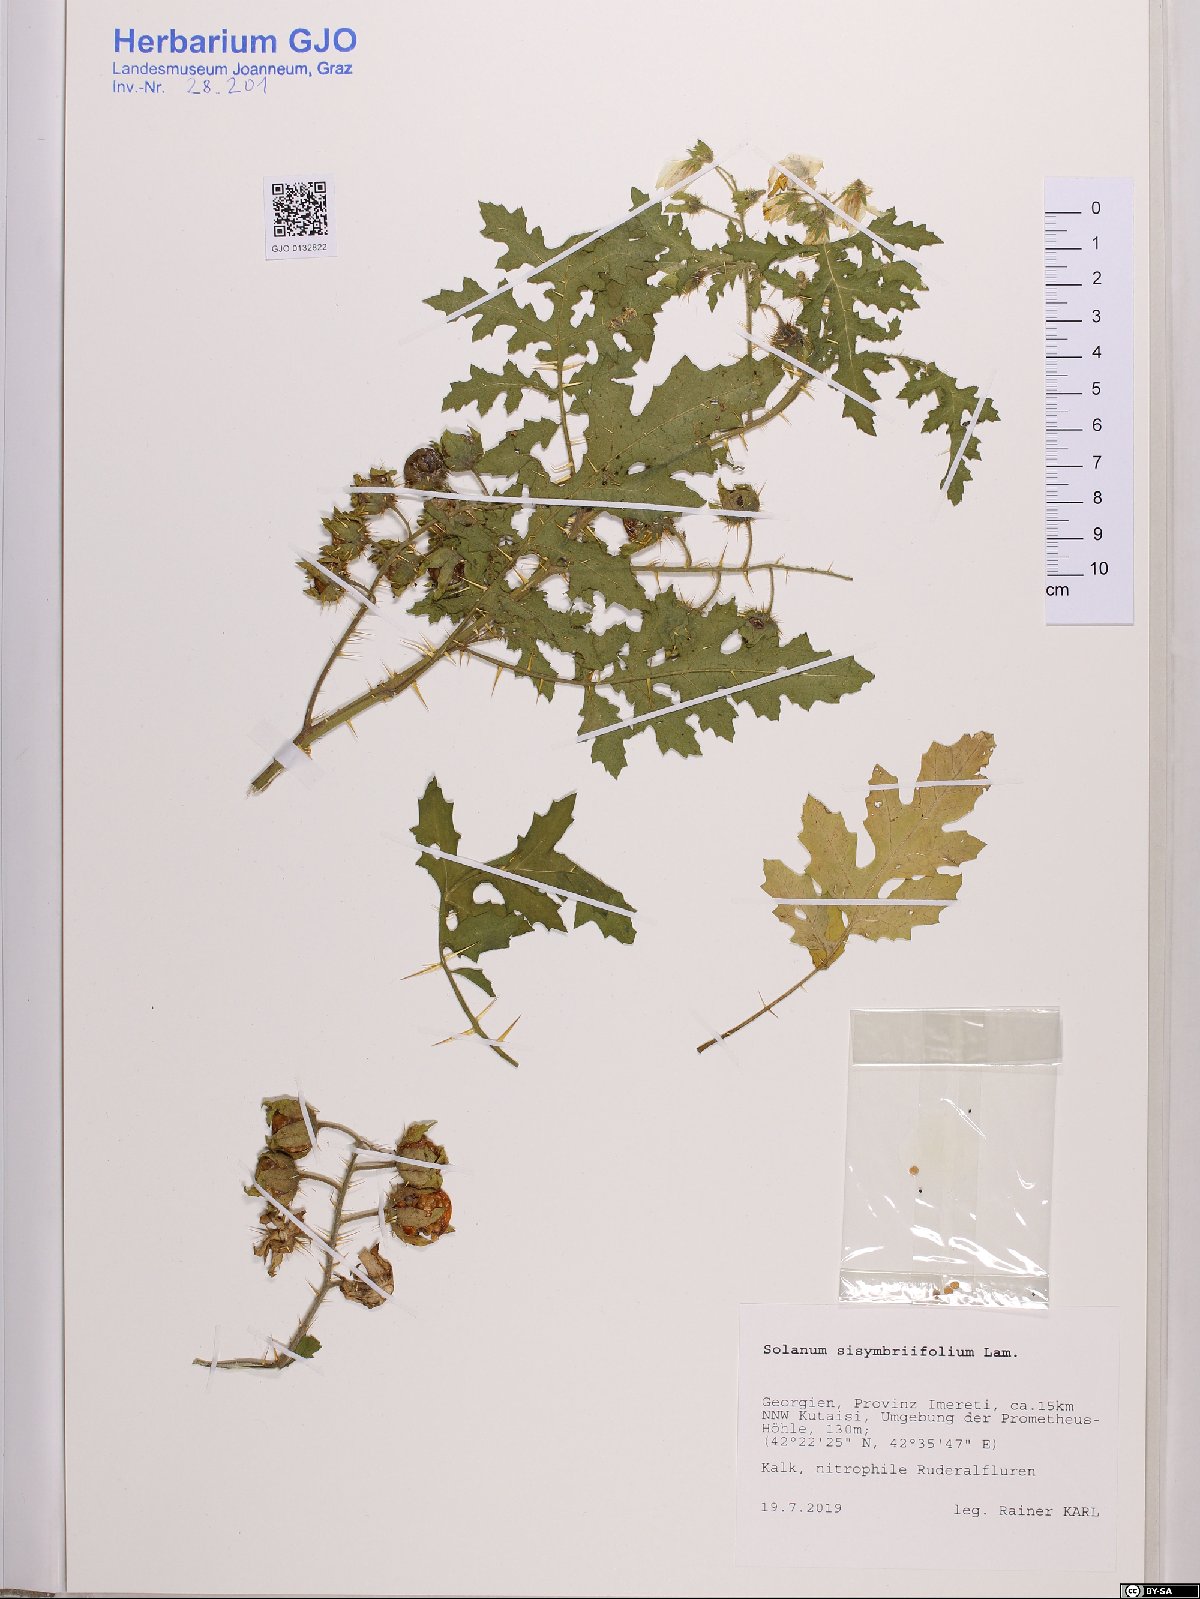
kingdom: Plantae
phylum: Tracheophyta
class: Magnoliopsida
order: Solanales
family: Solanaceae
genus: Solanum
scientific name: Solanum sisymbriifolium
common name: Red buffalo-bur
